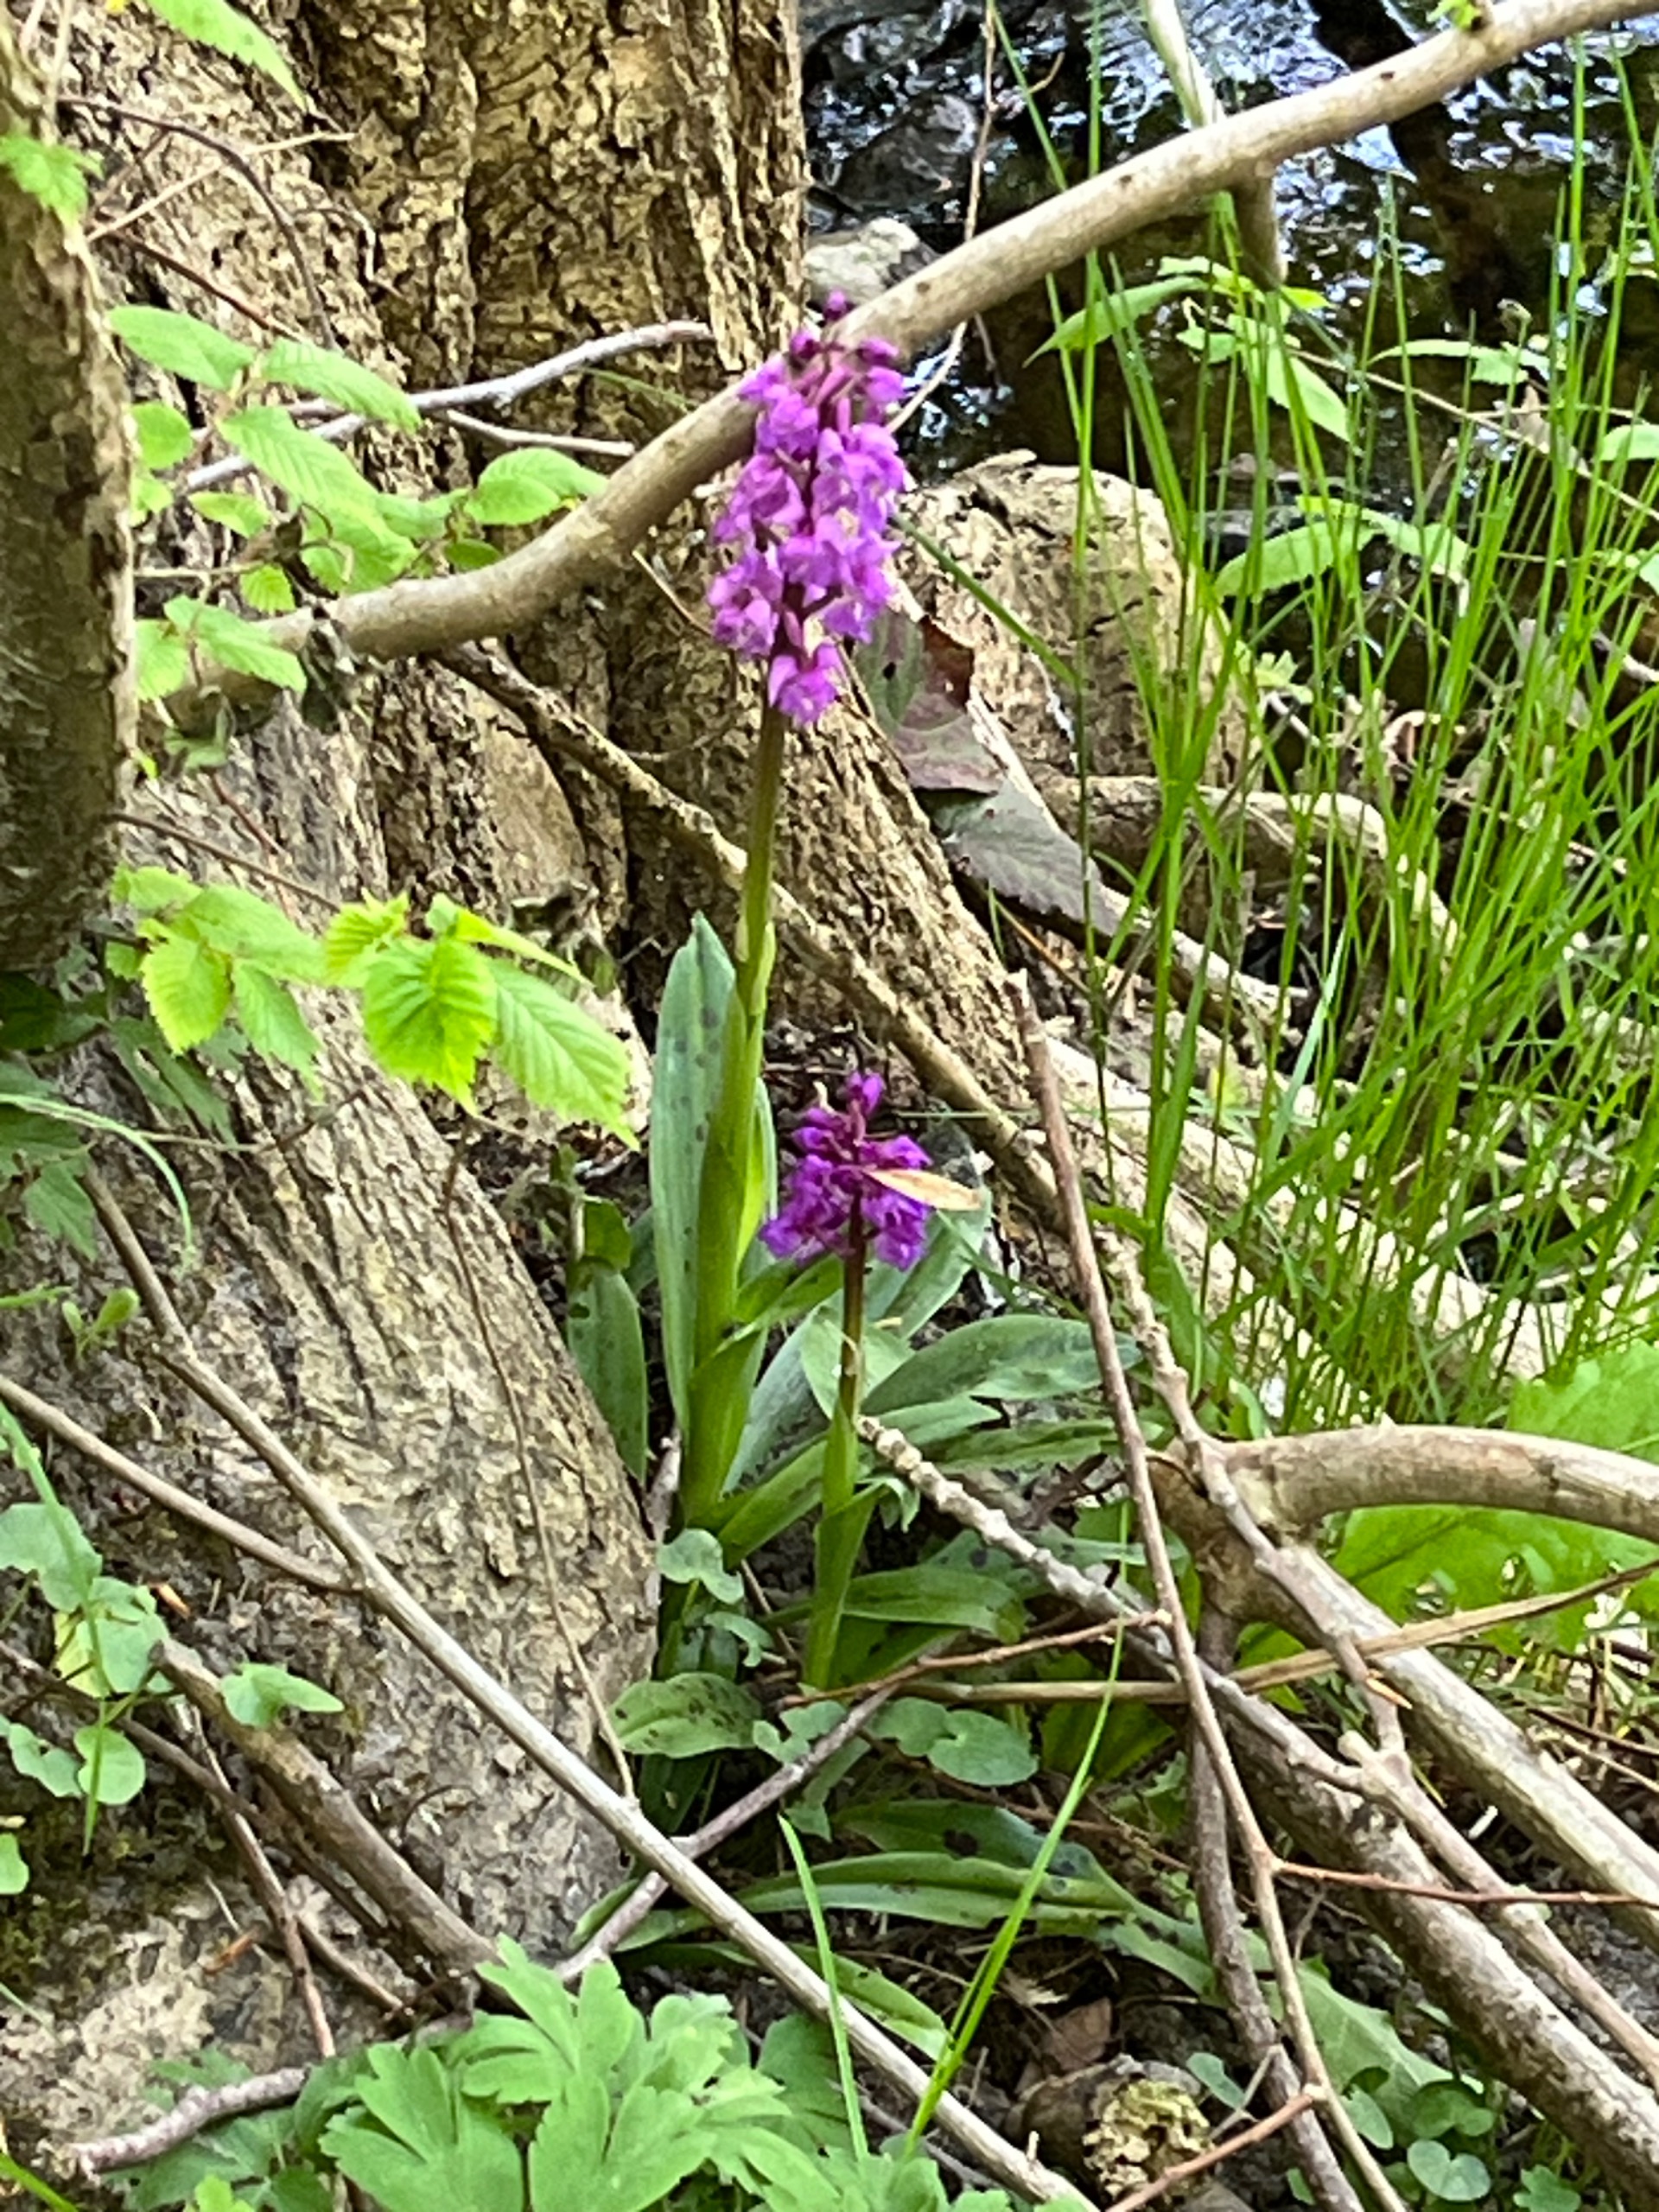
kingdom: Plantae
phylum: Tracheophyta
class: Liliopsida
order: Asparagales
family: Orchidaceae
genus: Orchis
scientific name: Orchis mascula
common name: Tyndakset gøgeurt
